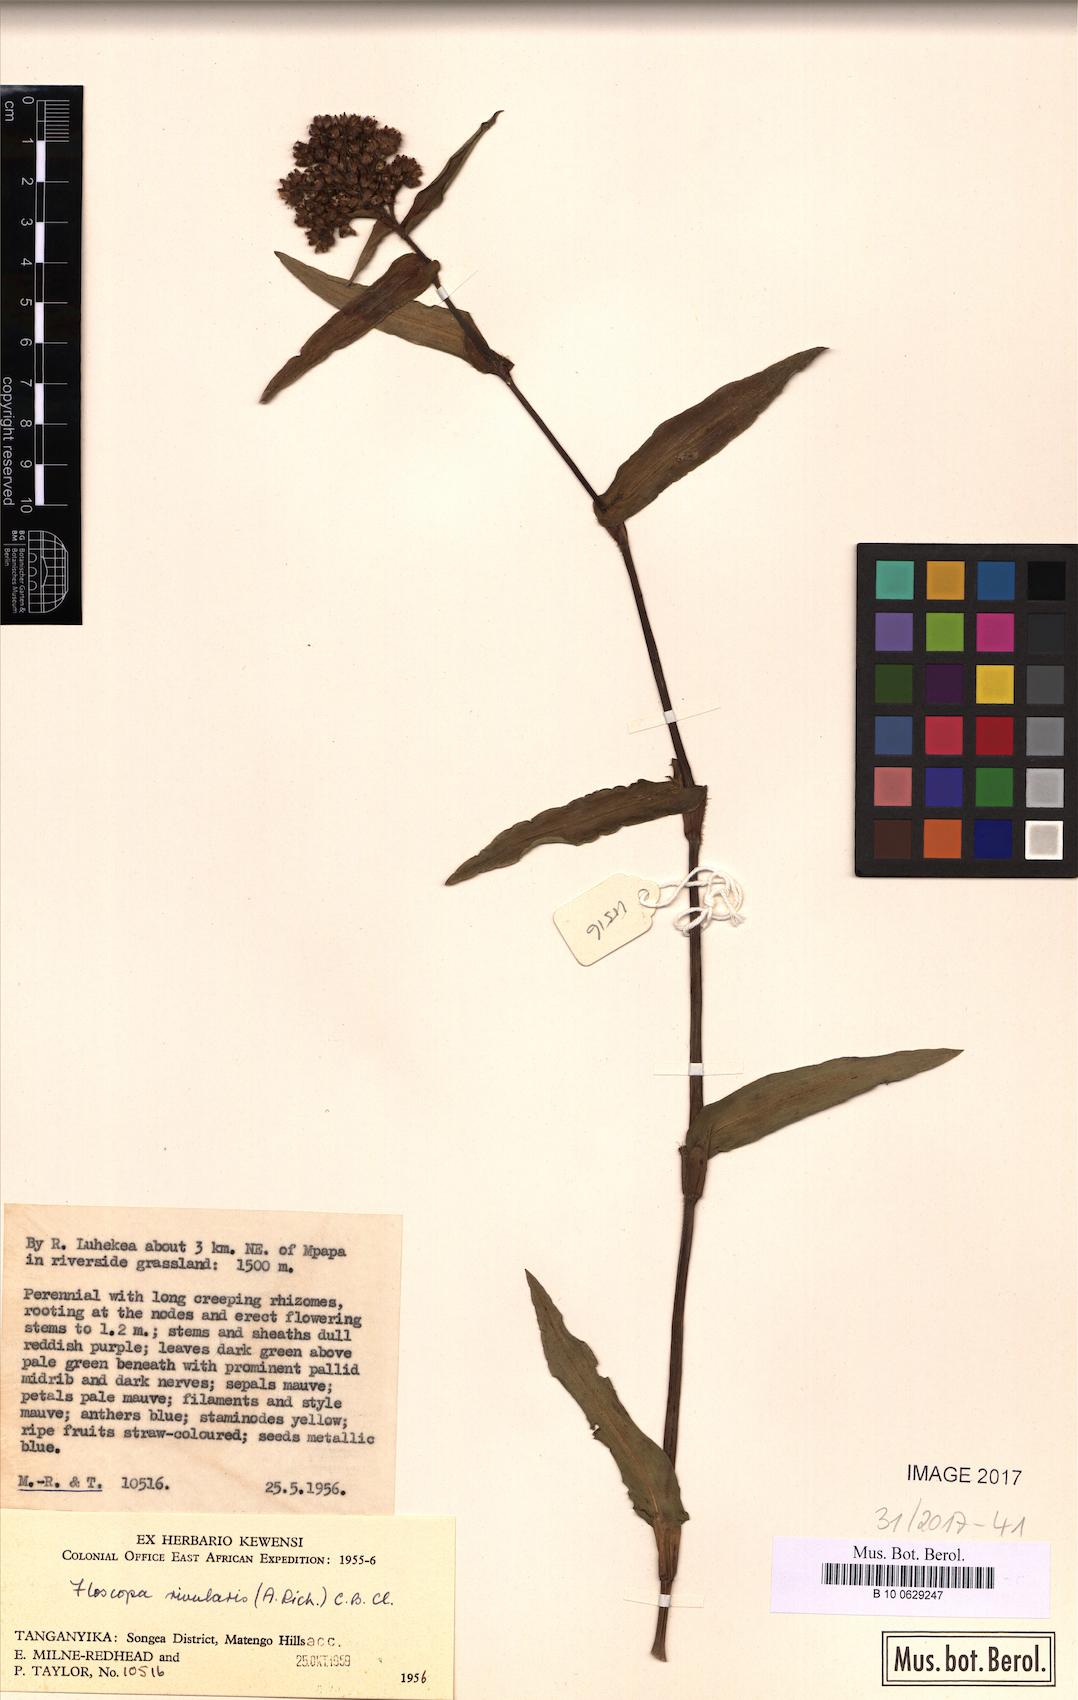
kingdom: Plantae
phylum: Tracheophyta
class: Liliopsida
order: Commelinales
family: Commelinaceae
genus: Floscopa
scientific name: Floscopa glomerata
